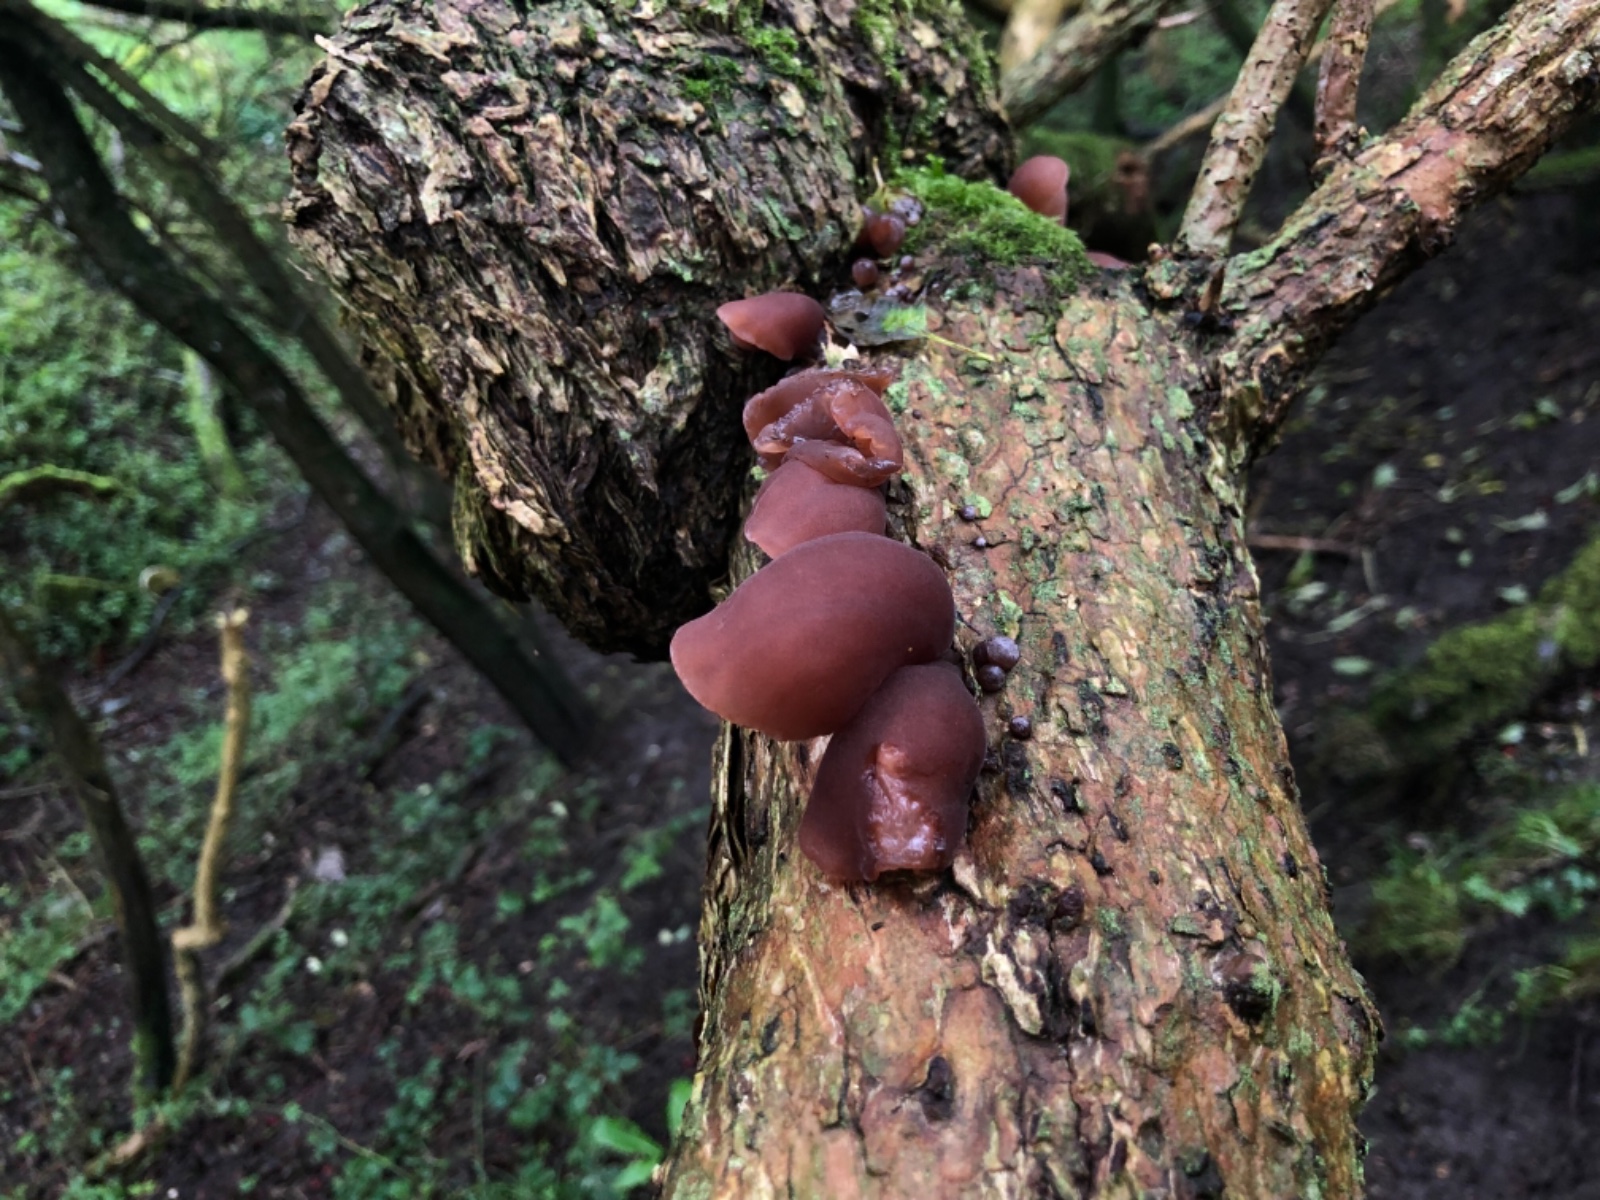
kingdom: Fungi
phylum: Basidiomycota
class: Agaricomycetes
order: Auriculariales
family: Auriculariaceae
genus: Auricularia
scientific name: Auricularia auricula-judae
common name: almindelig judasøre
